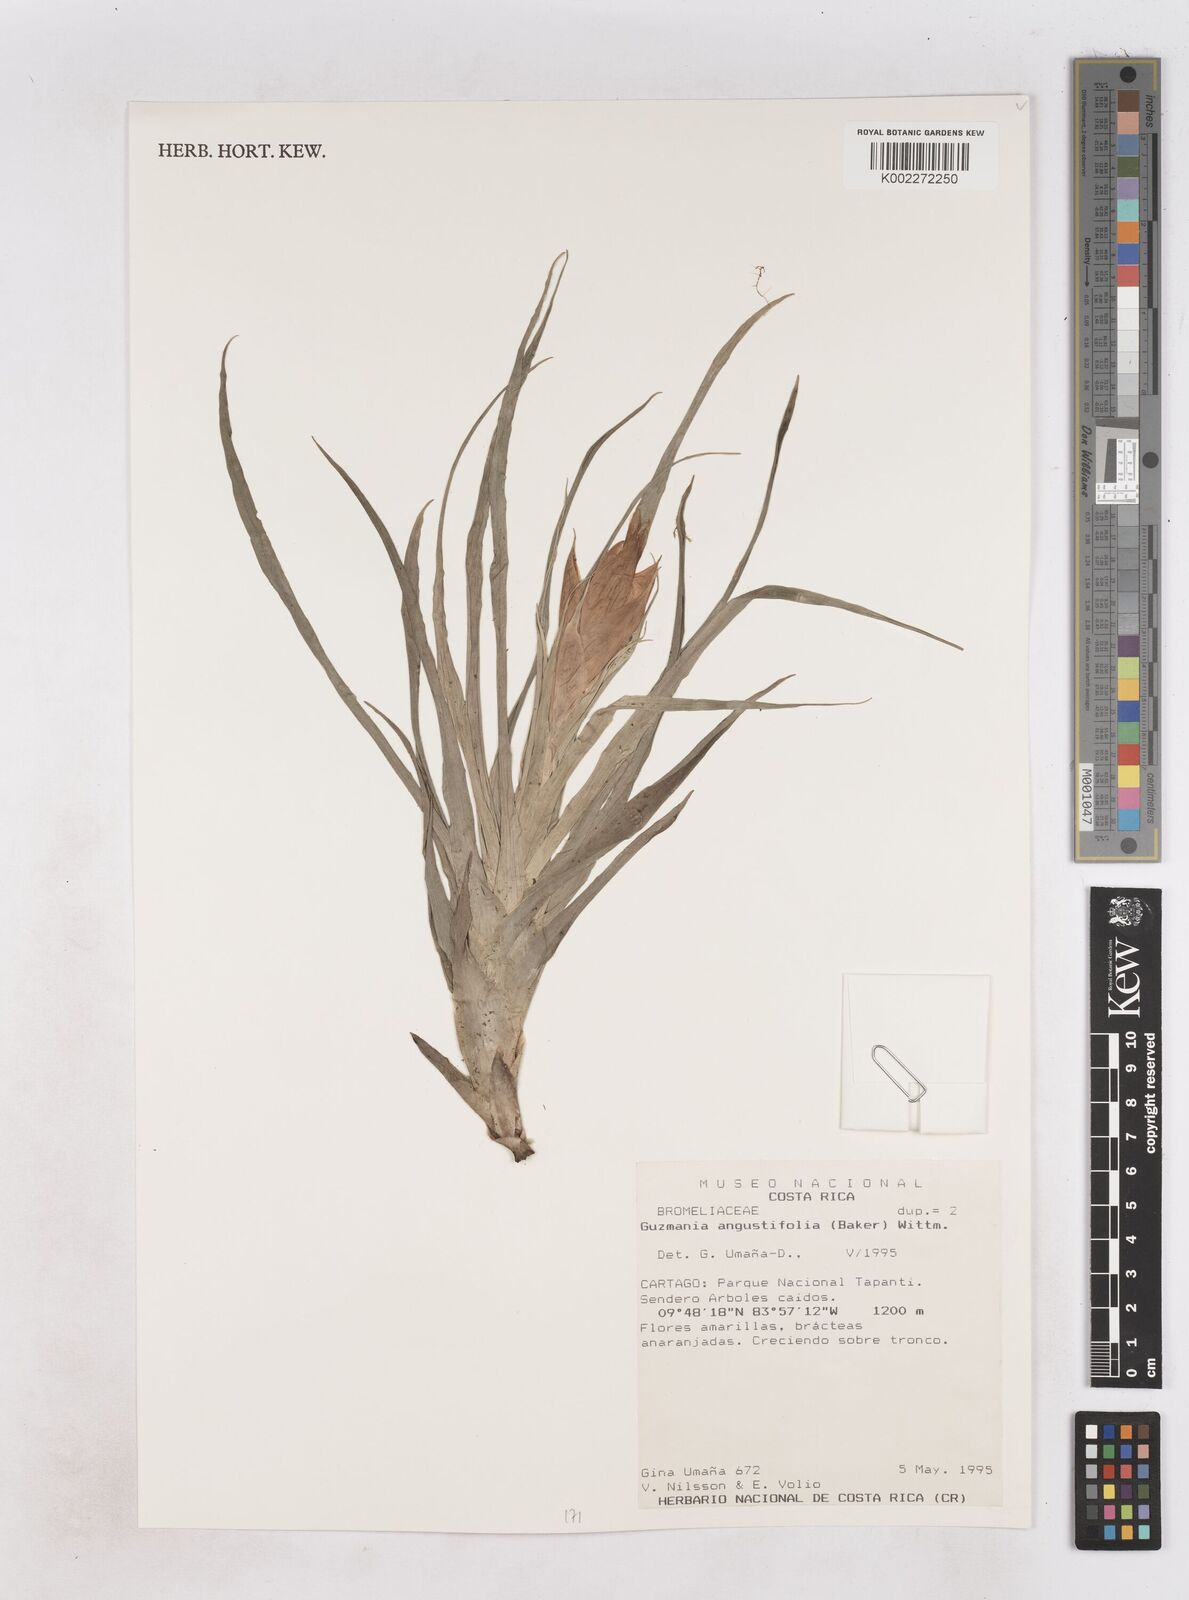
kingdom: Plantae
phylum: Tracheophyta
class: Liliopsida
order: Poales
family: Bromeliaceae
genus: Guzmania
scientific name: Guzmania angustifolia
